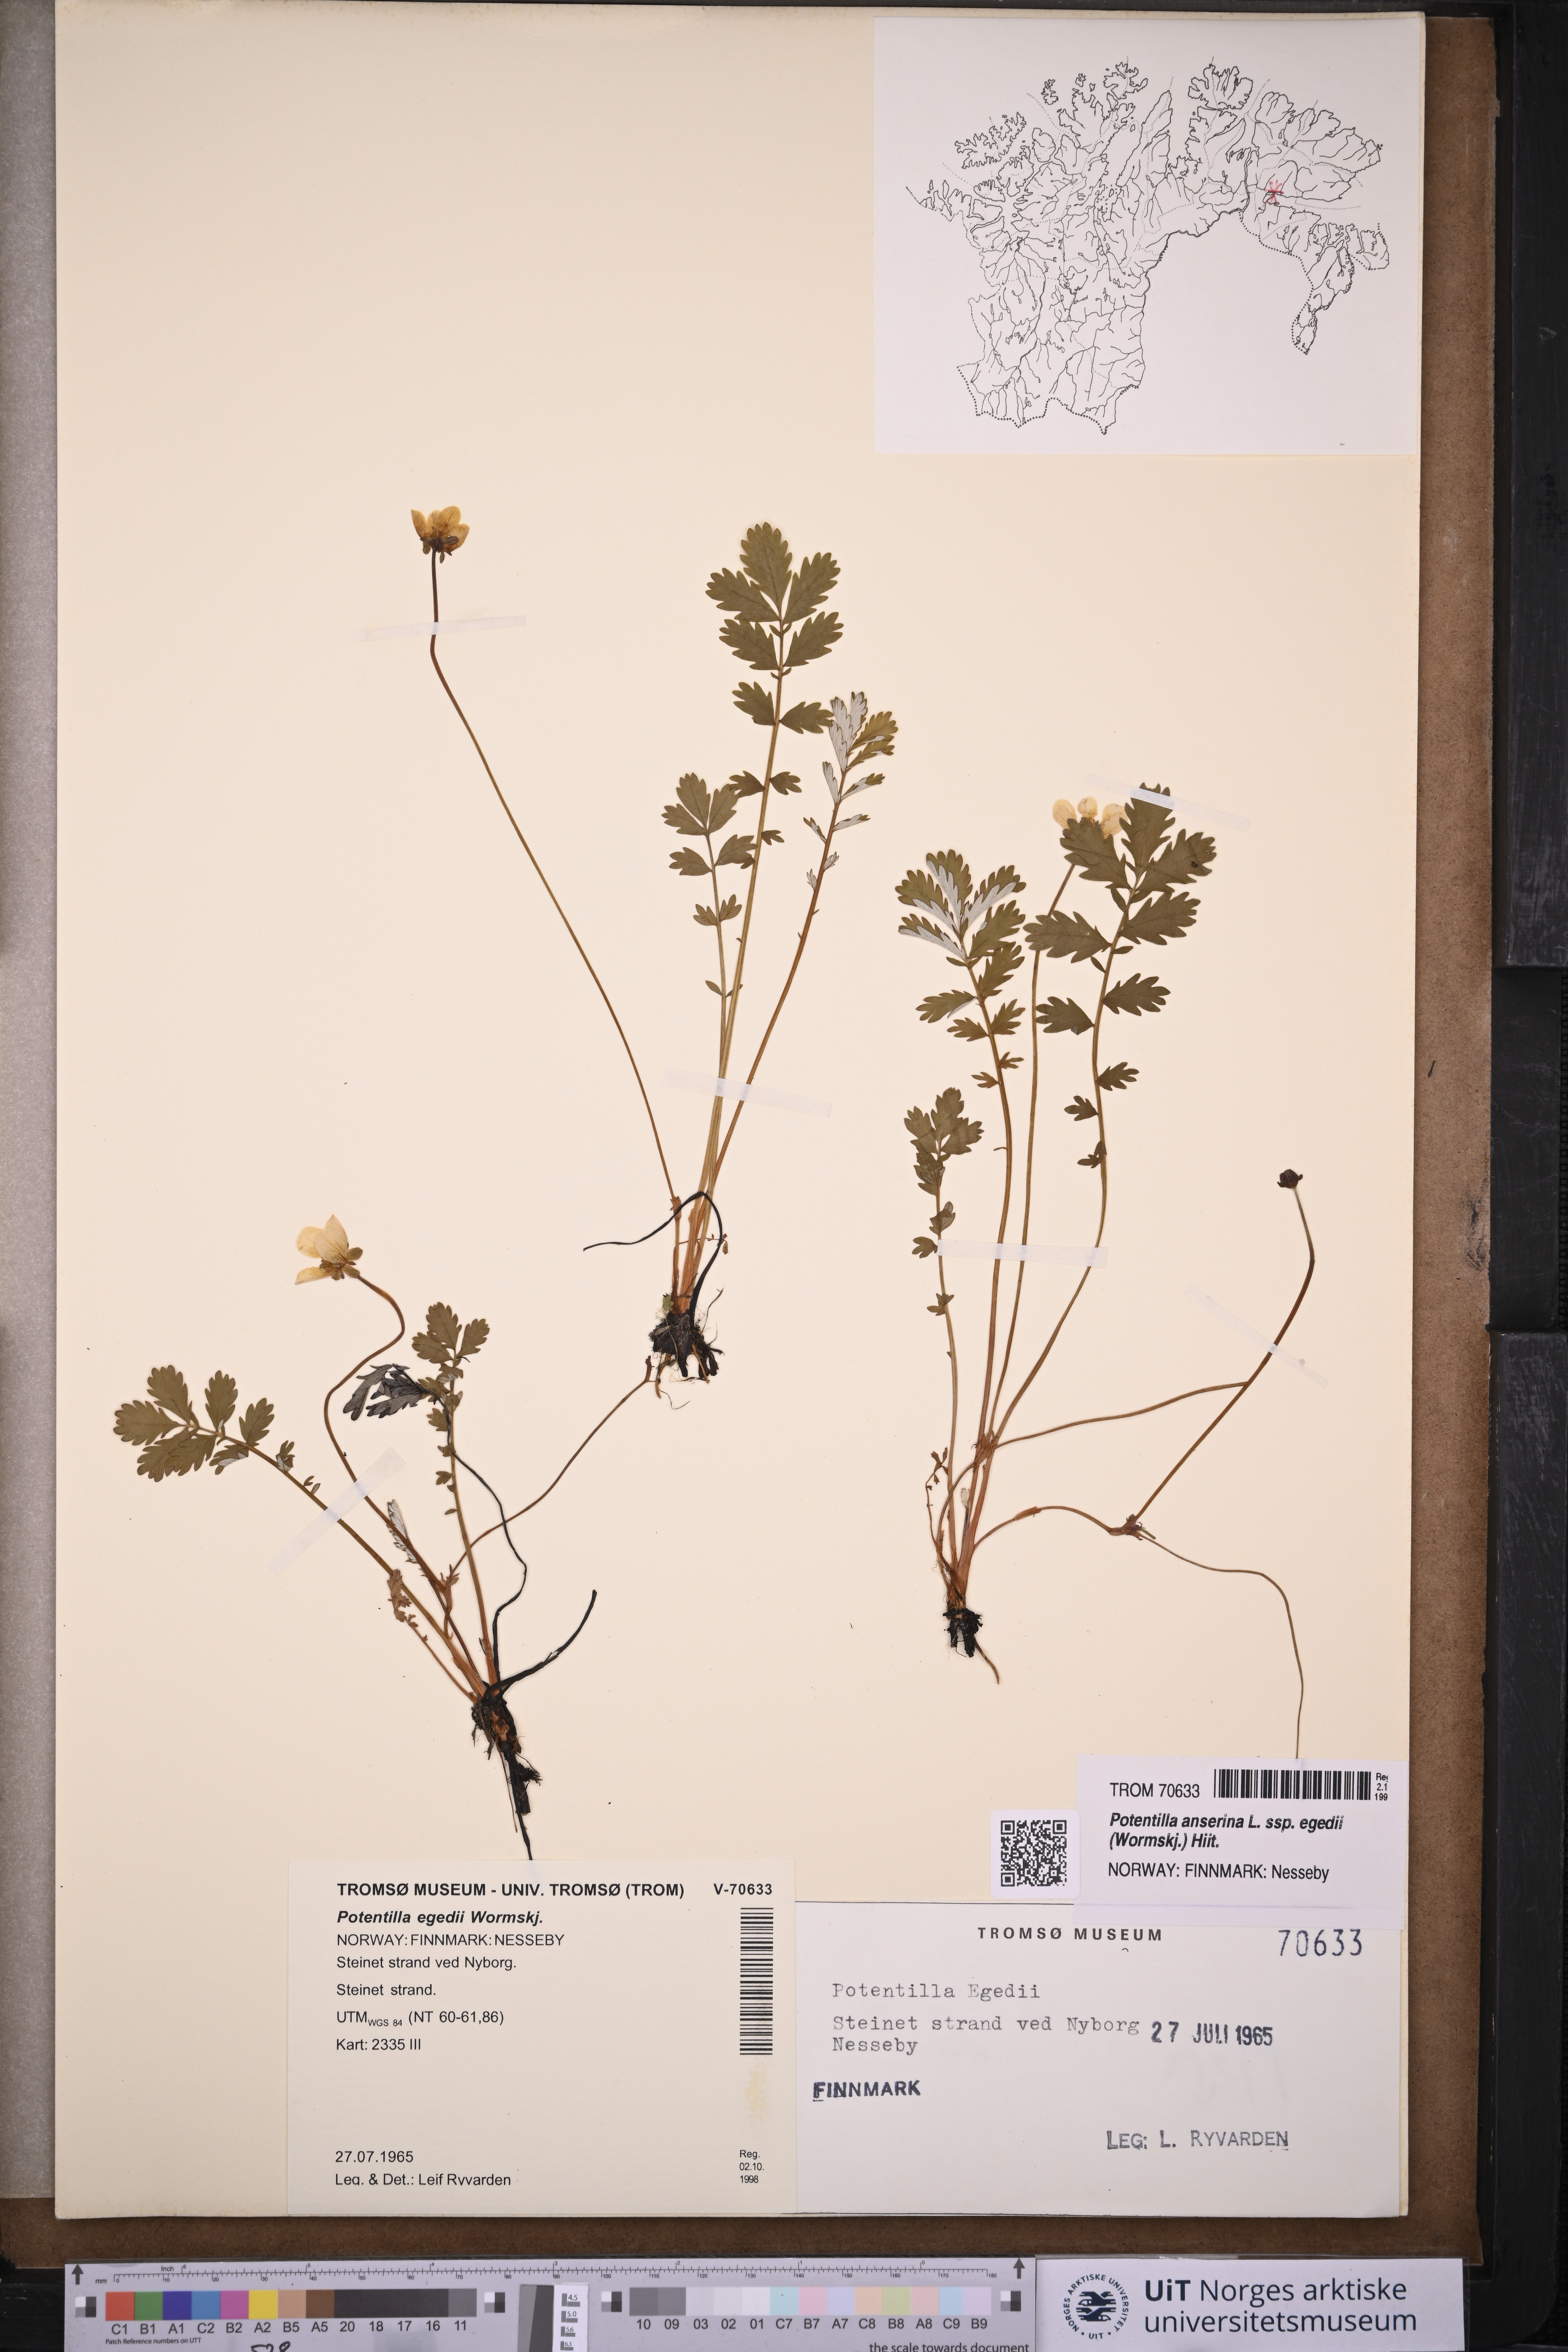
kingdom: Plantae
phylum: Tracheophyta
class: Magnoliopsida
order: Rosales
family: Rosaceae
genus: Argentina
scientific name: Argentina anserina
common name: Common silverweed
